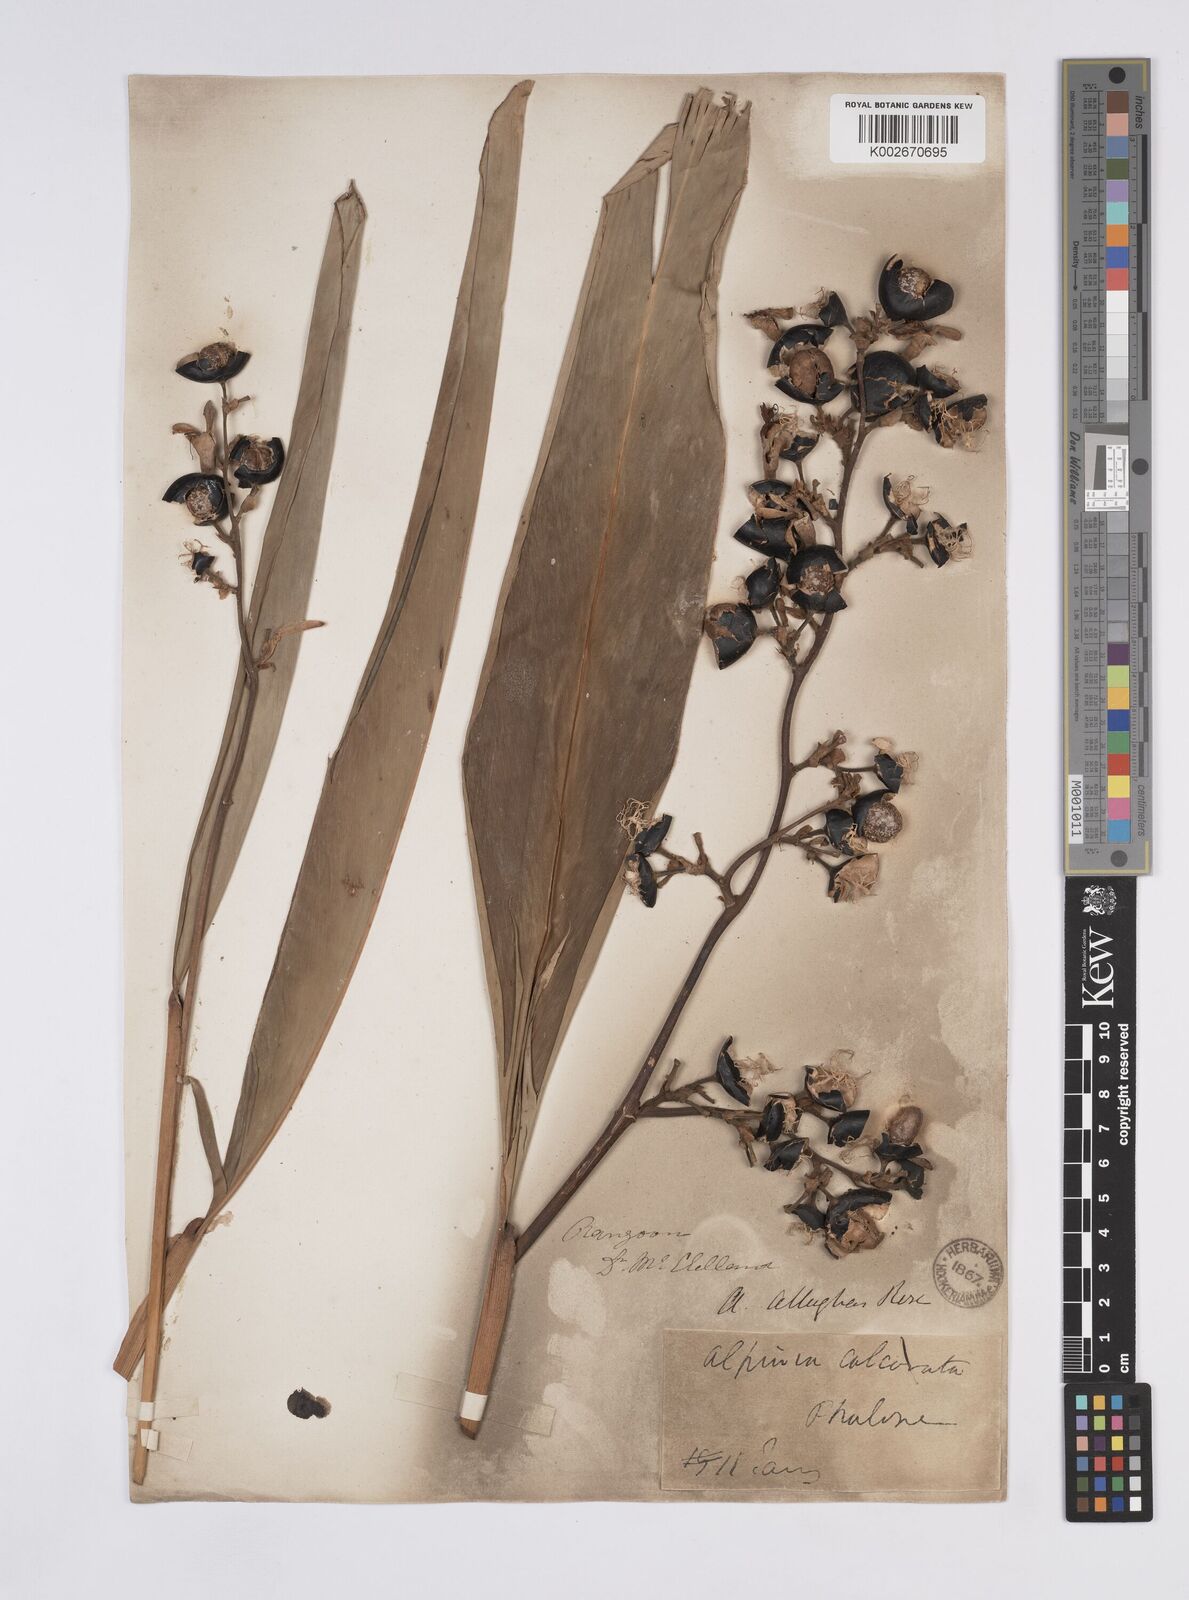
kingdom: Plantae
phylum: Tracheophyta
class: Liliopsida
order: Zingiberales
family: Zingiberaceae
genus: Alpinia
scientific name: Alpinia nigra
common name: Black fruited galanga
